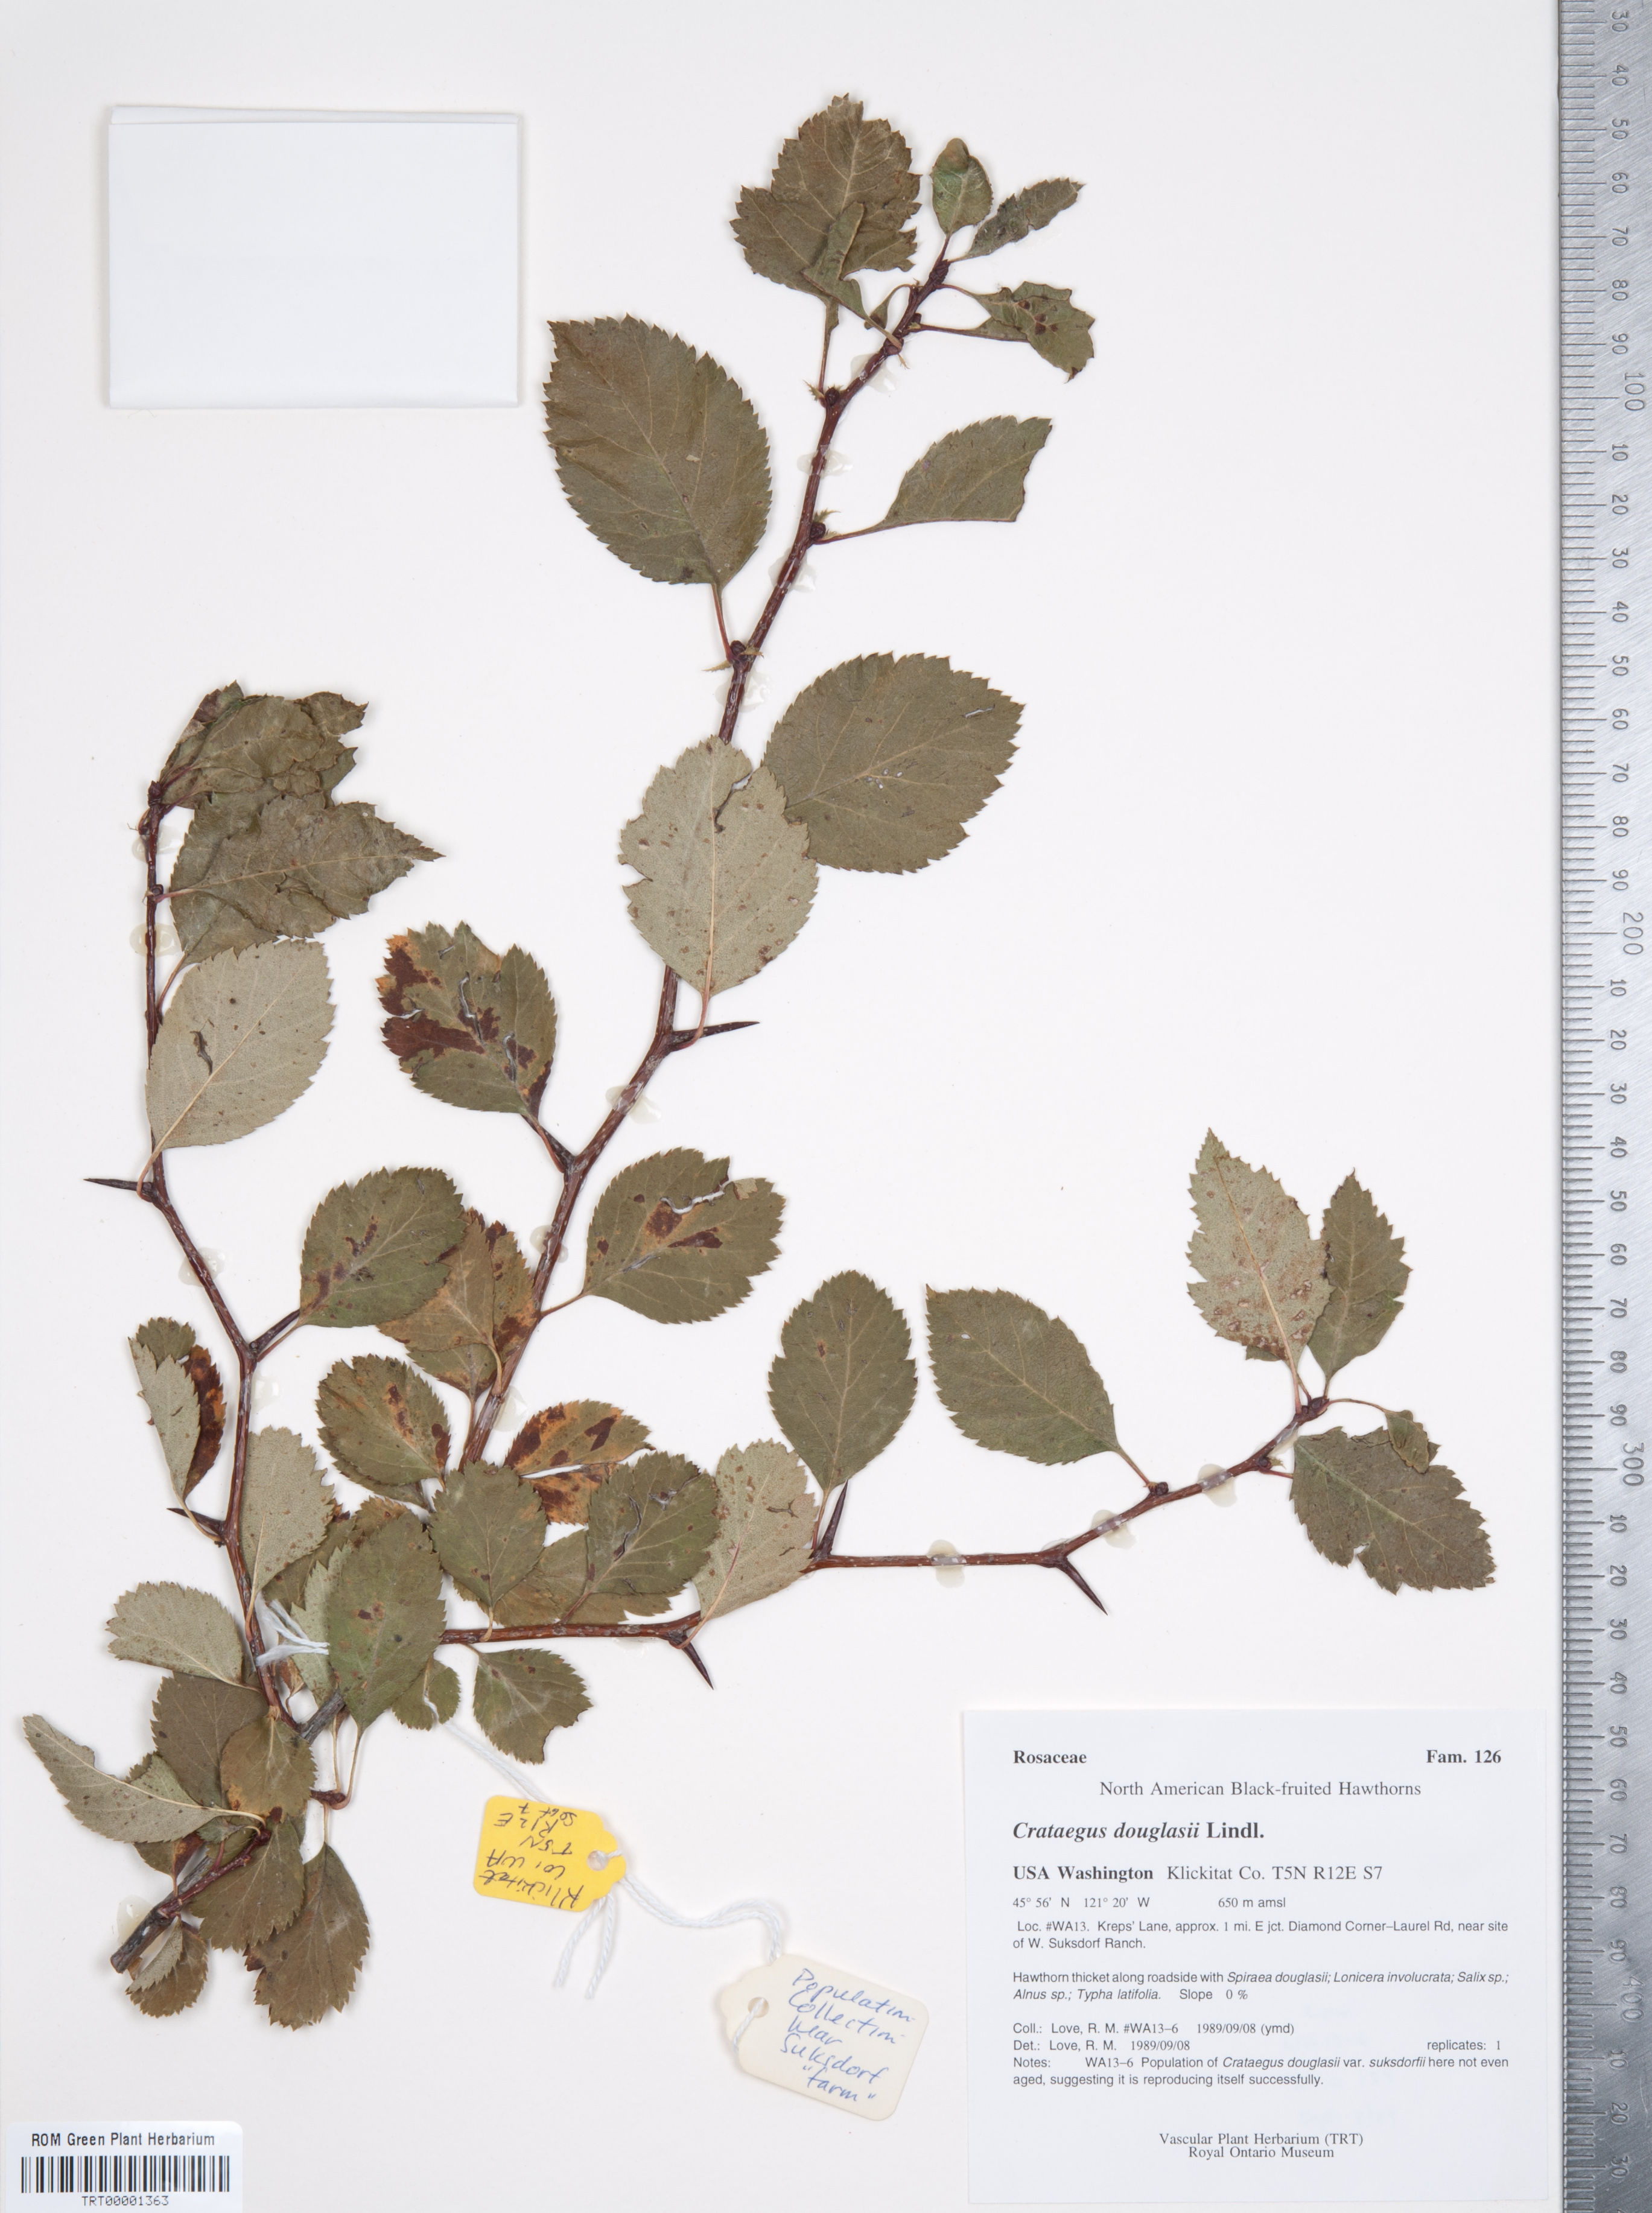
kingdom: Plantae
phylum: Tracheophyta
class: Magnoliopsida
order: Rosales
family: Rosaceae
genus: Crataegus
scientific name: Crataegus douglasii
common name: Black hawthorn
